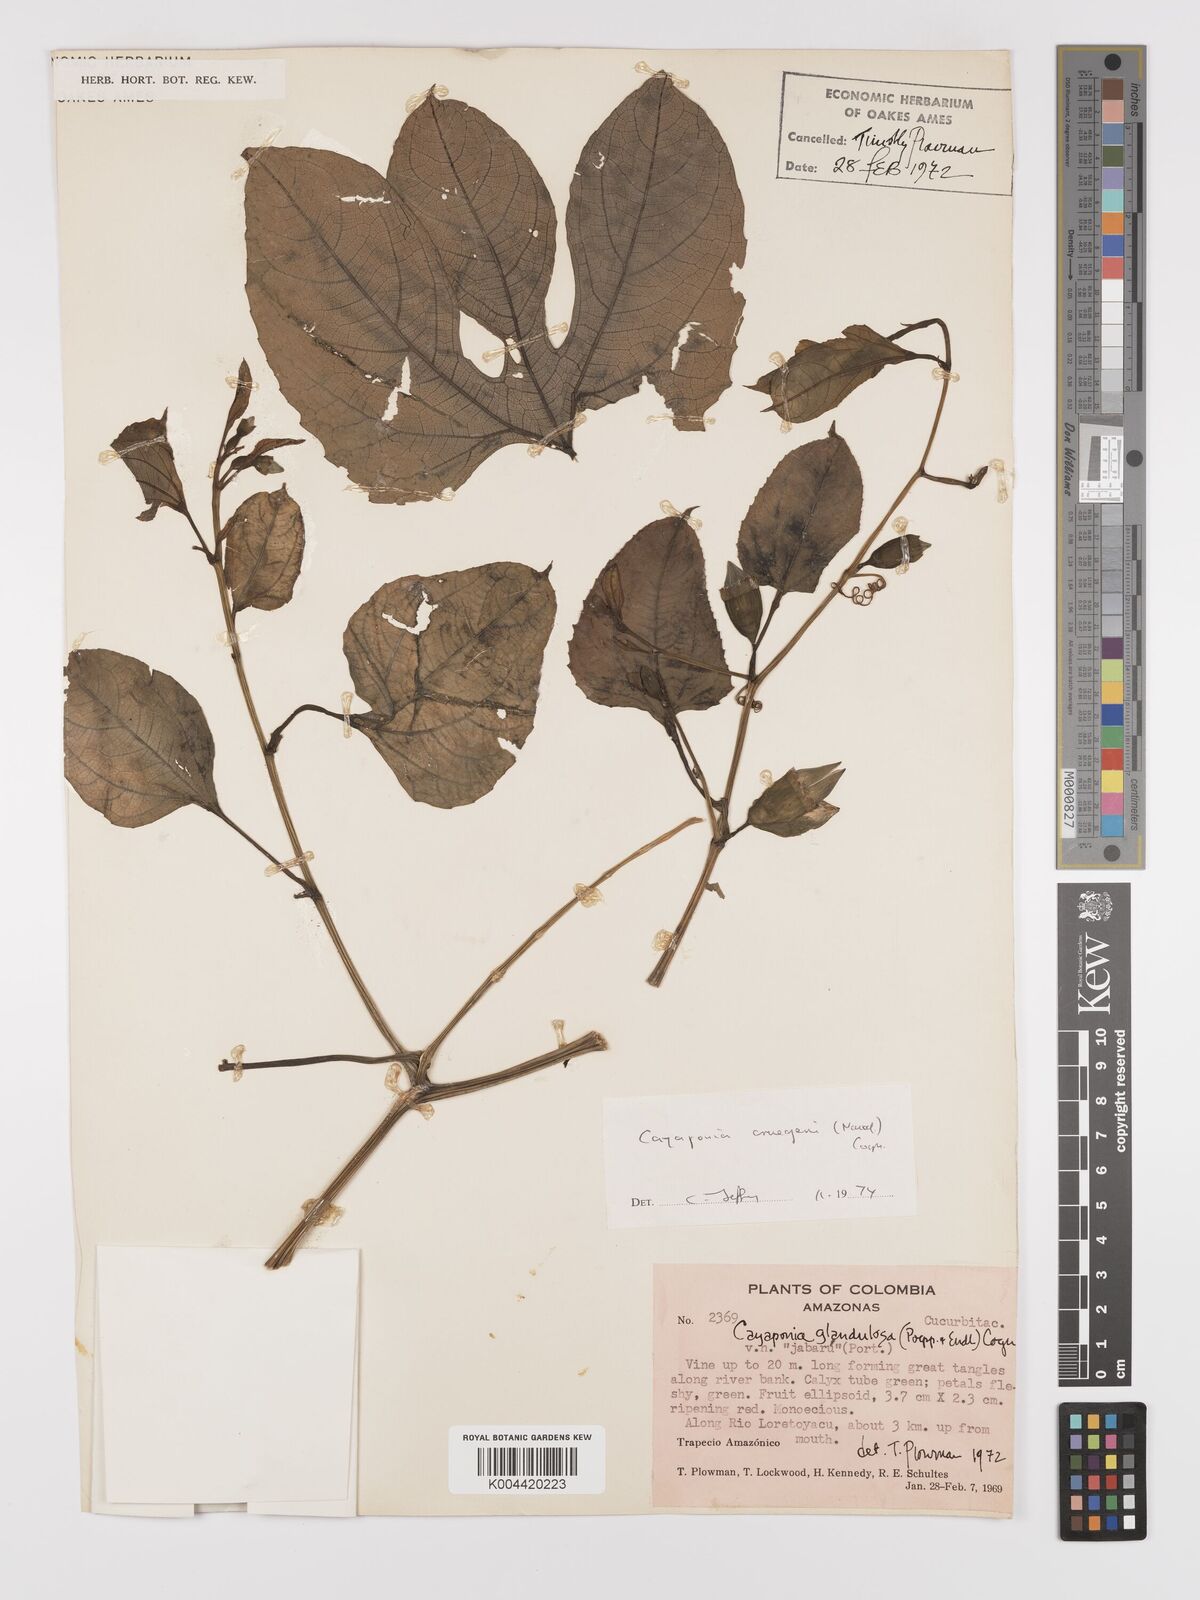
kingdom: Plantae
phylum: Tracheophyta
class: Magnoliopsida
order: Cucurbitales
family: Cucurbitaceae
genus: Cayaponia
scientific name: Cayaponia cruegeri
